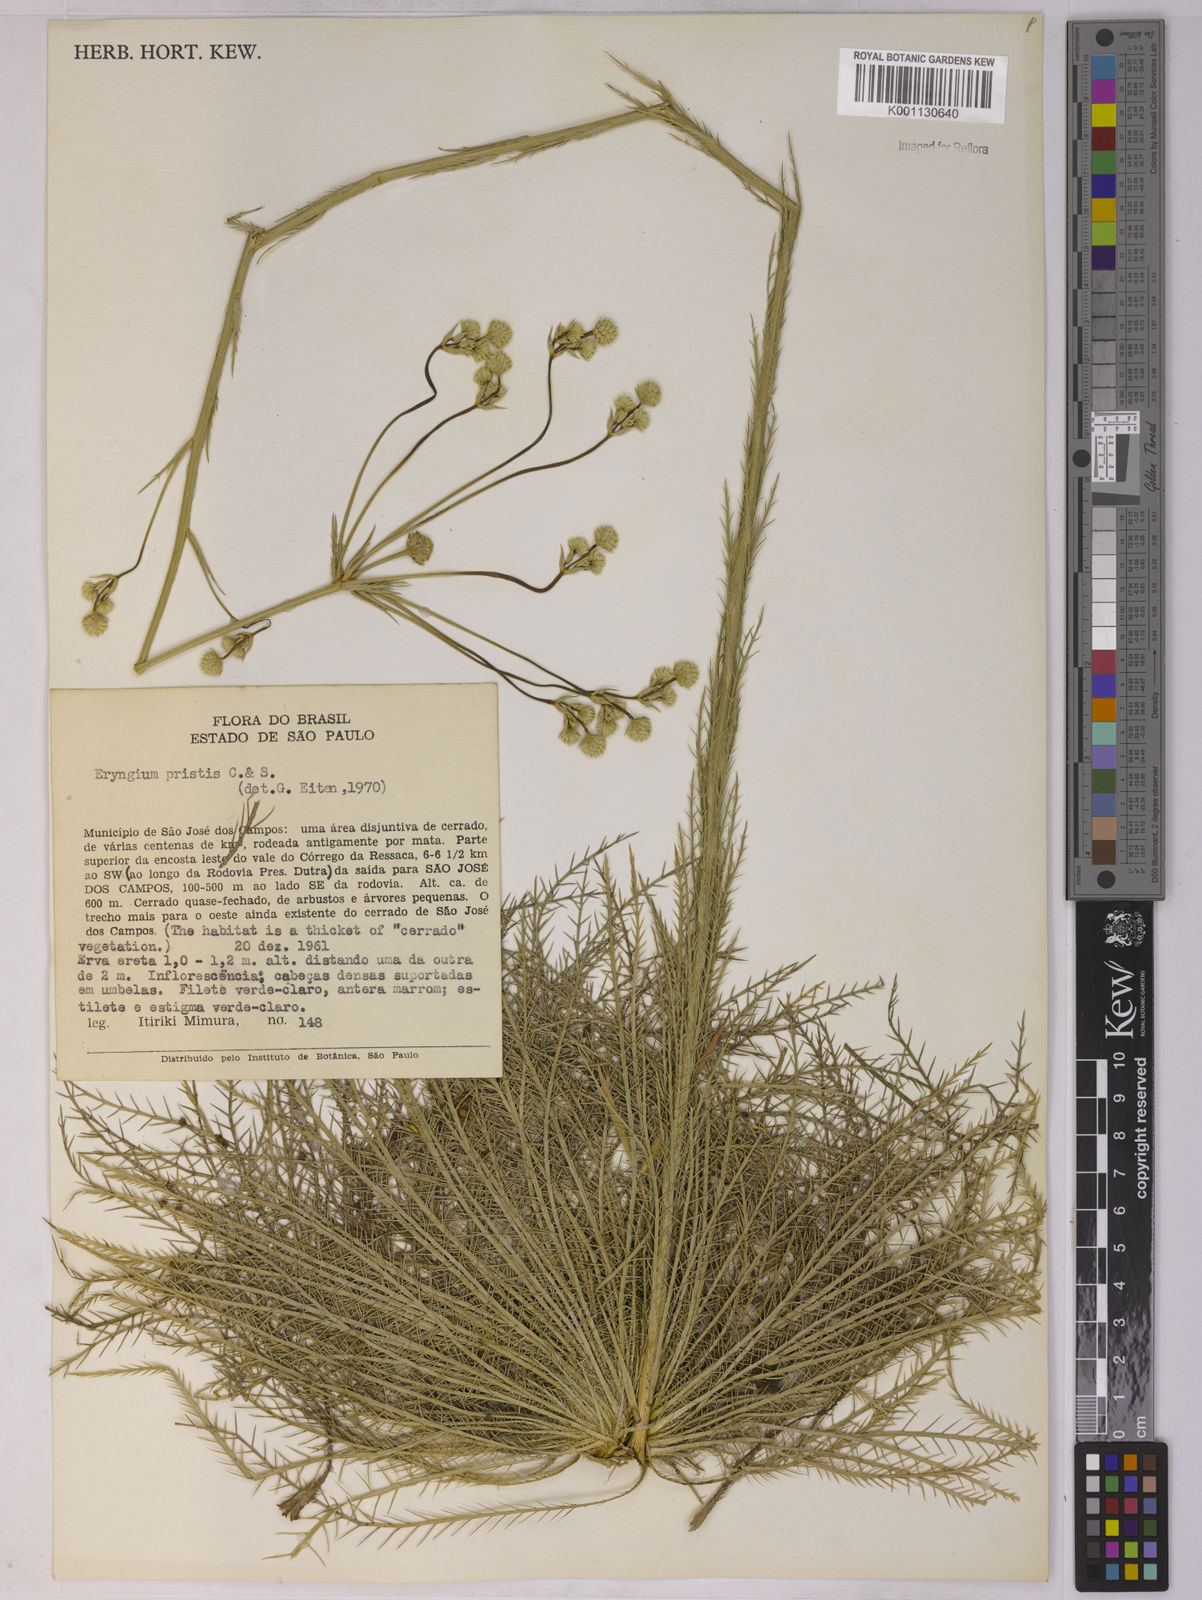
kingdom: Plantae
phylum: Tracheophyta
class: Magnoliopsida
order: Apiales
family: Apiaceae
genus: Eryngium
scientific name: Eryngium pristis
